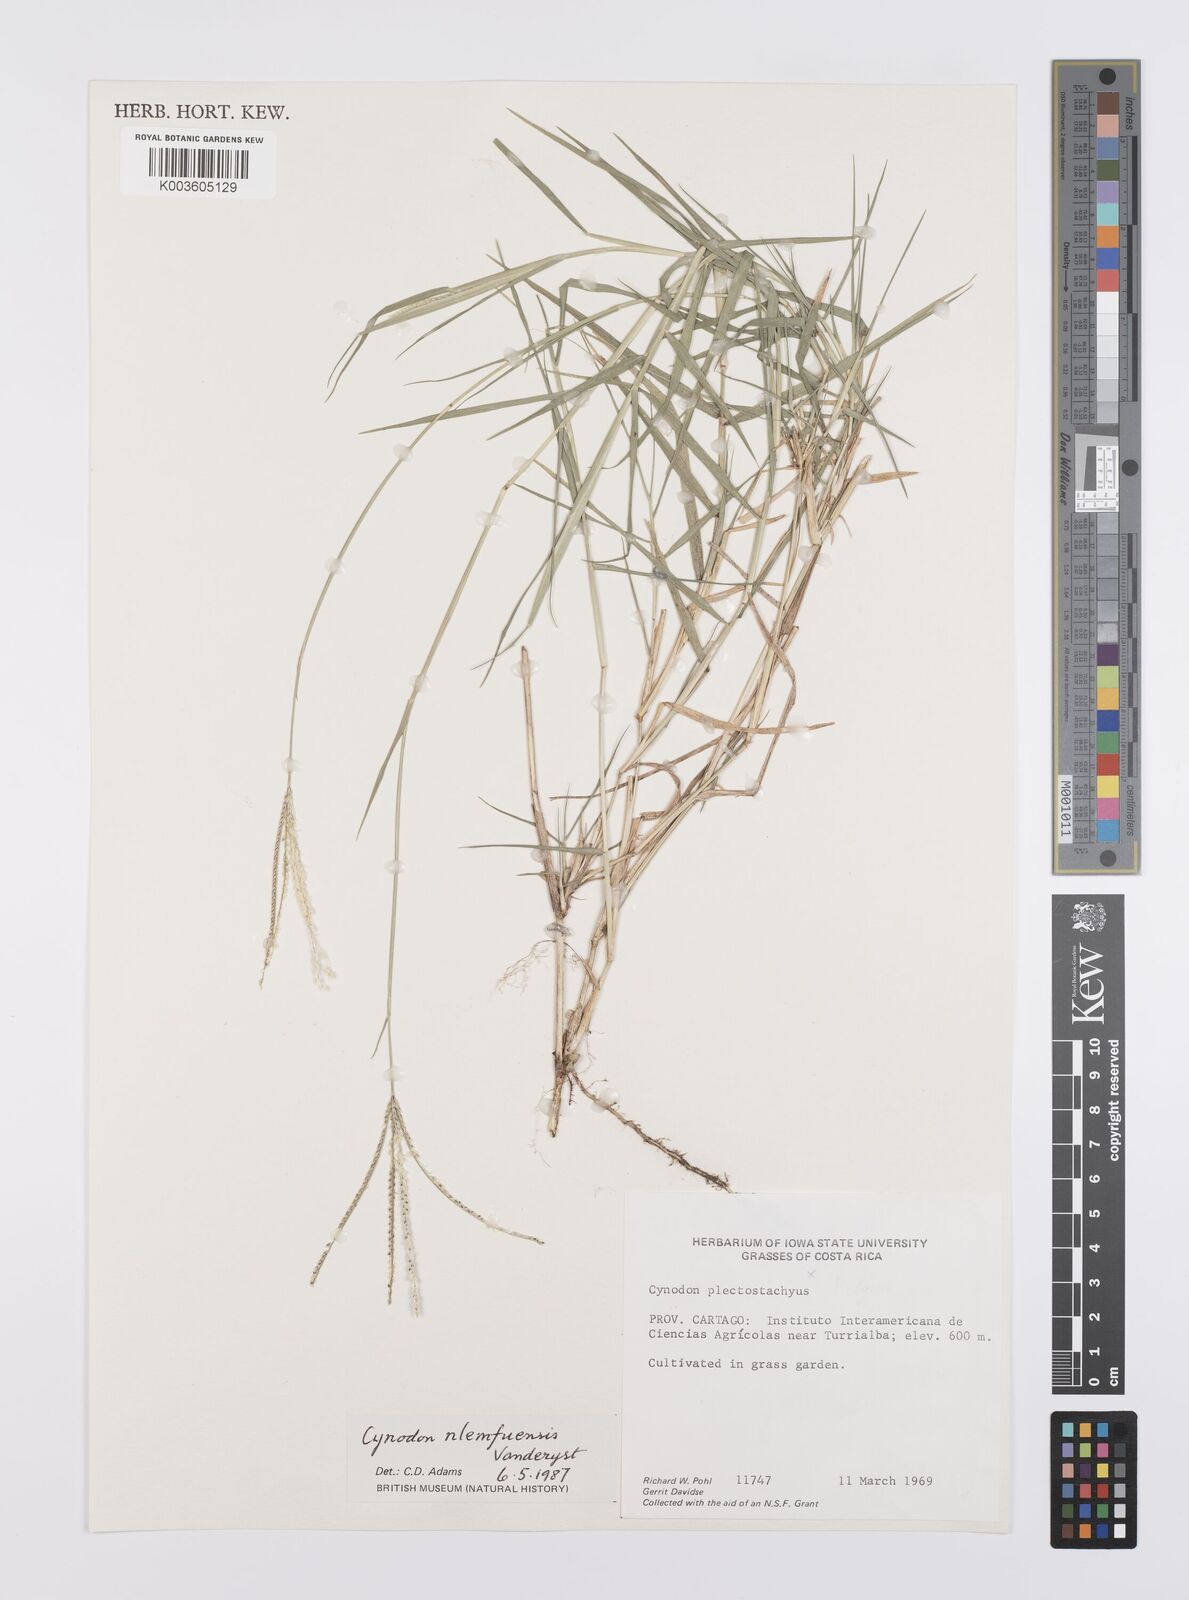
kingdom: Plantae
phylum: Tracheophyta
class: Liliopsida
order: Poales
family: Poaceae
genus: Cynodon
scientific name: Cynodon nlemfuensis
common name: African bermudagrass
